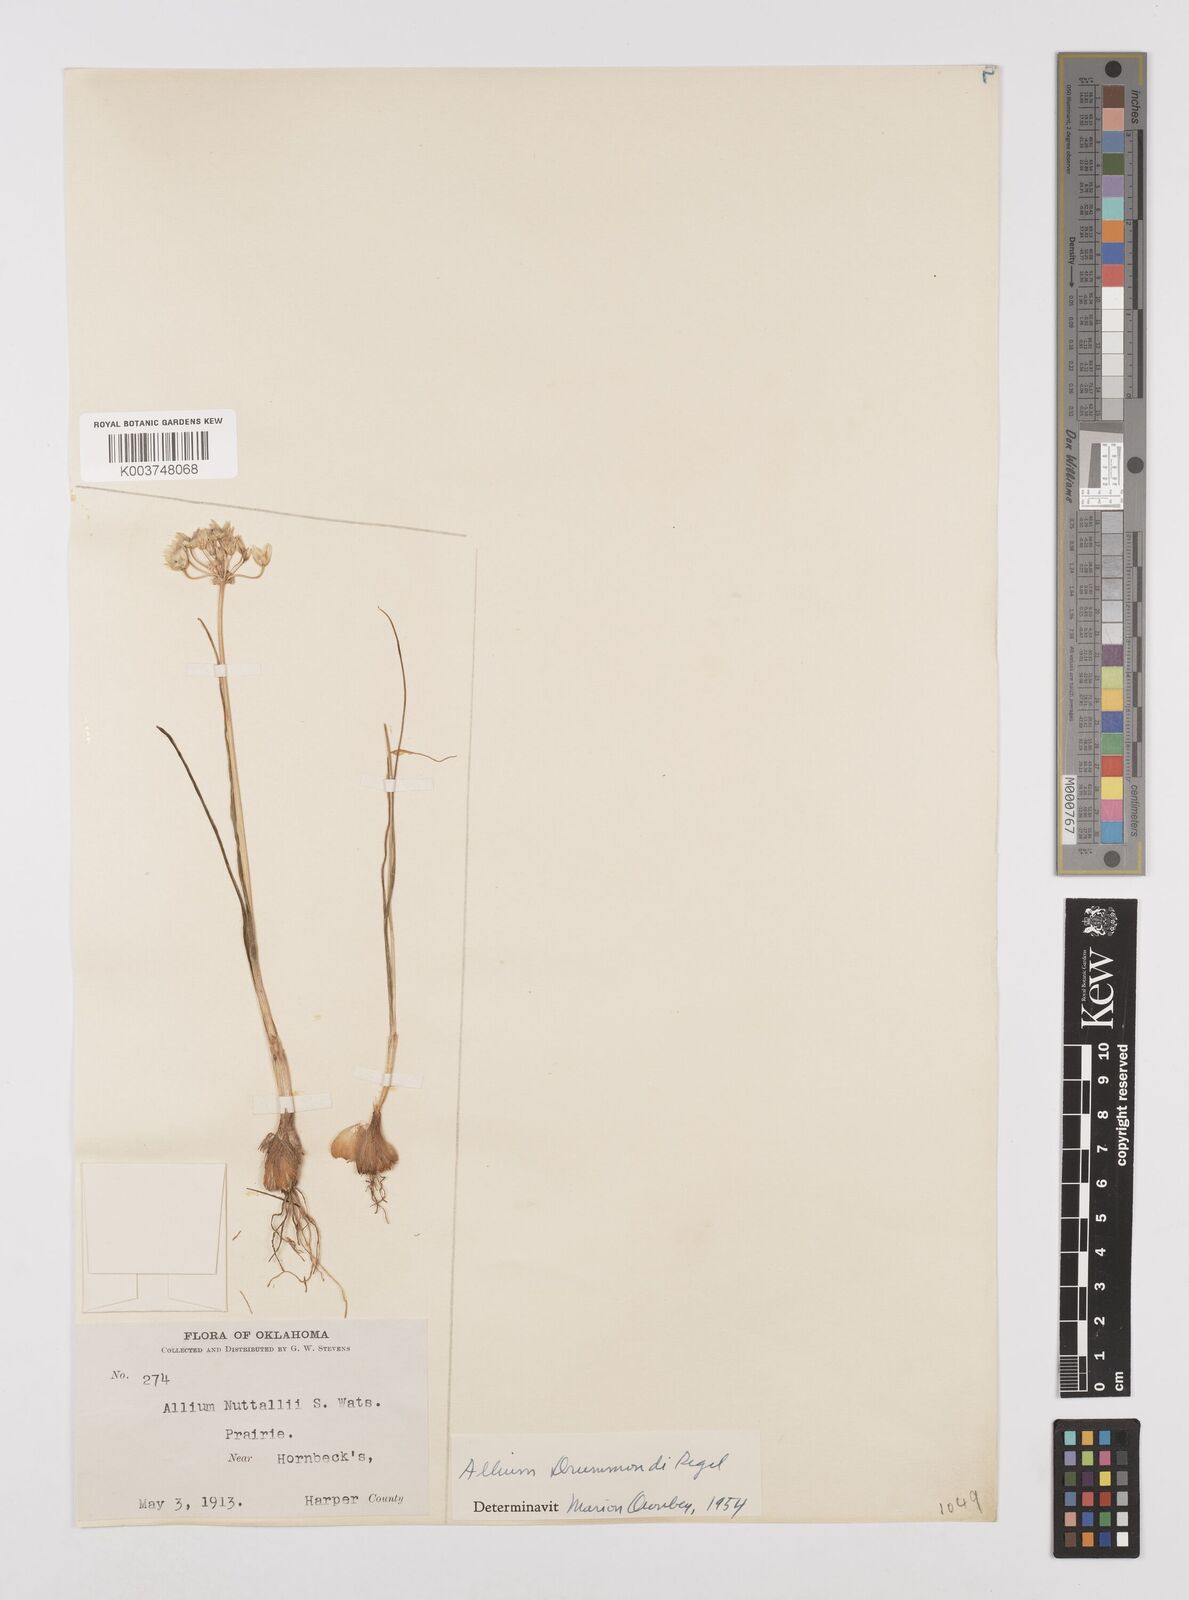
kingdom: Plantae
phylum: Tracheophyta
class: Liliopsida
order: Asparagales
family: Amaryllidaceae
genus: Allium
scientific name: Allium drummondii
